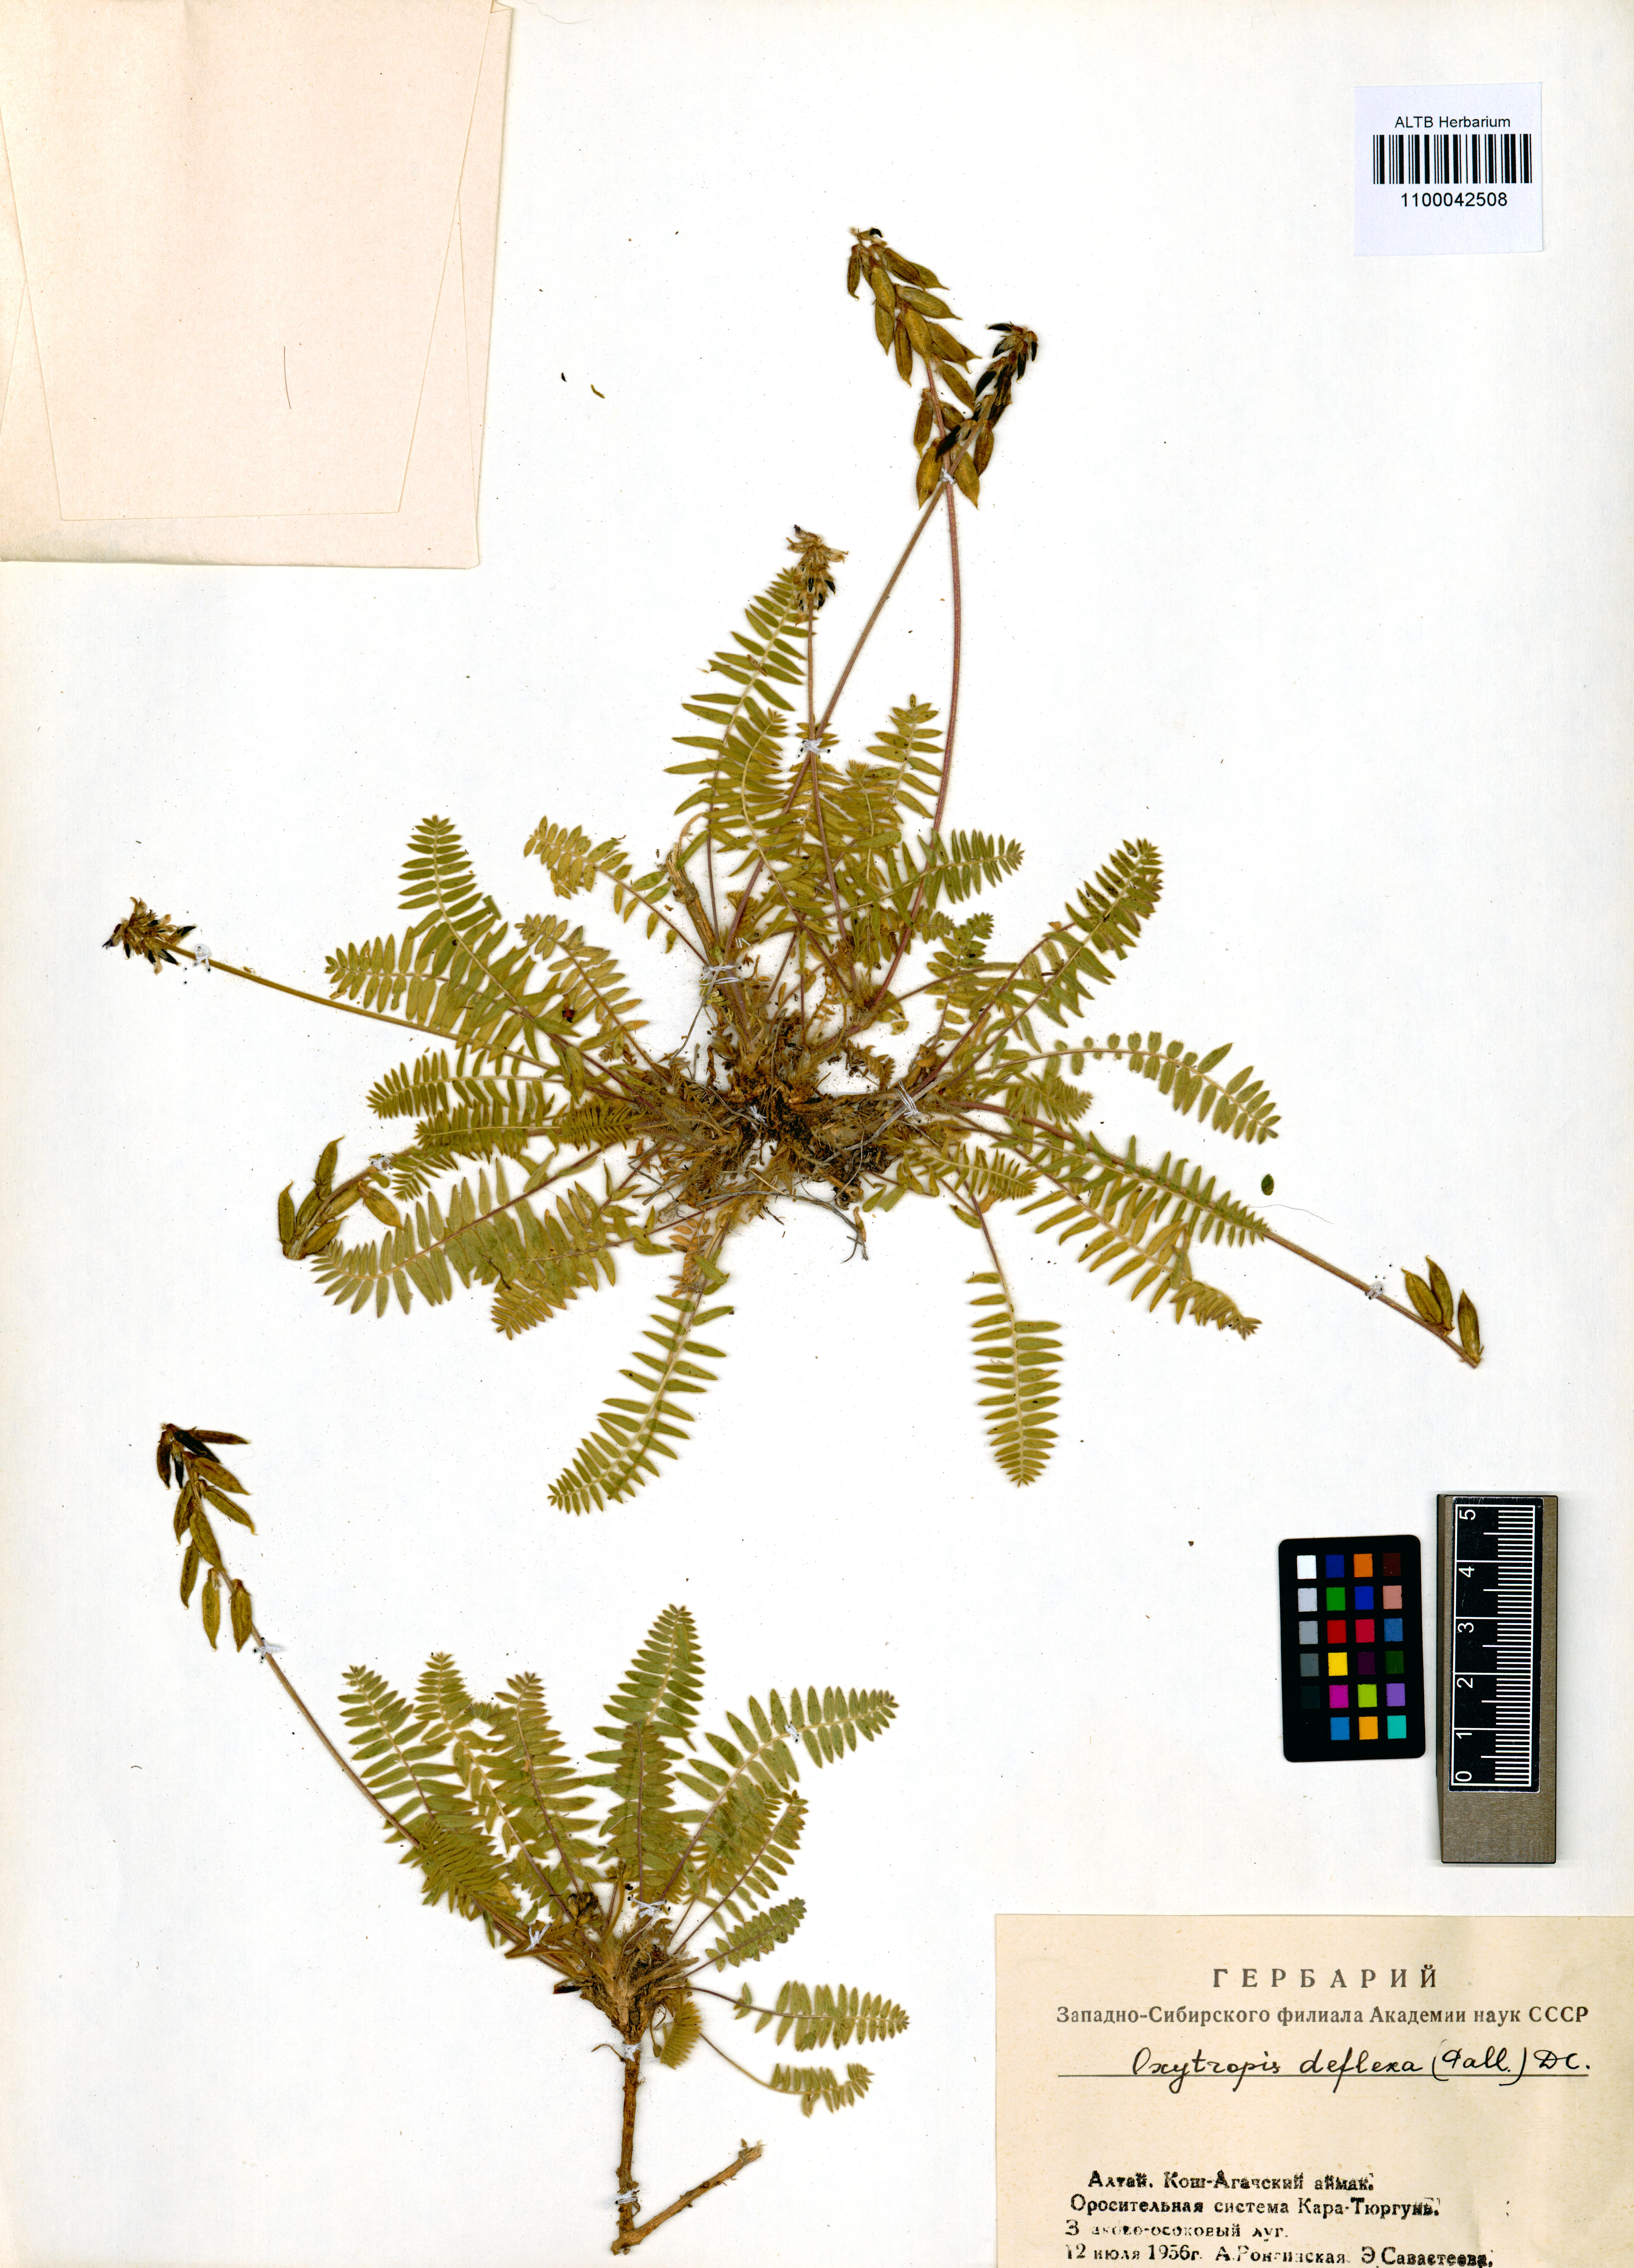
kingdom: Plantae
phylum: Tracheophyta
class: Magnoliopsida
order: Fabales
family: Fabaceae
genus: Oxytropis
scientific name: Oxytropis deflexa
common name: Stemmed oxytrope
